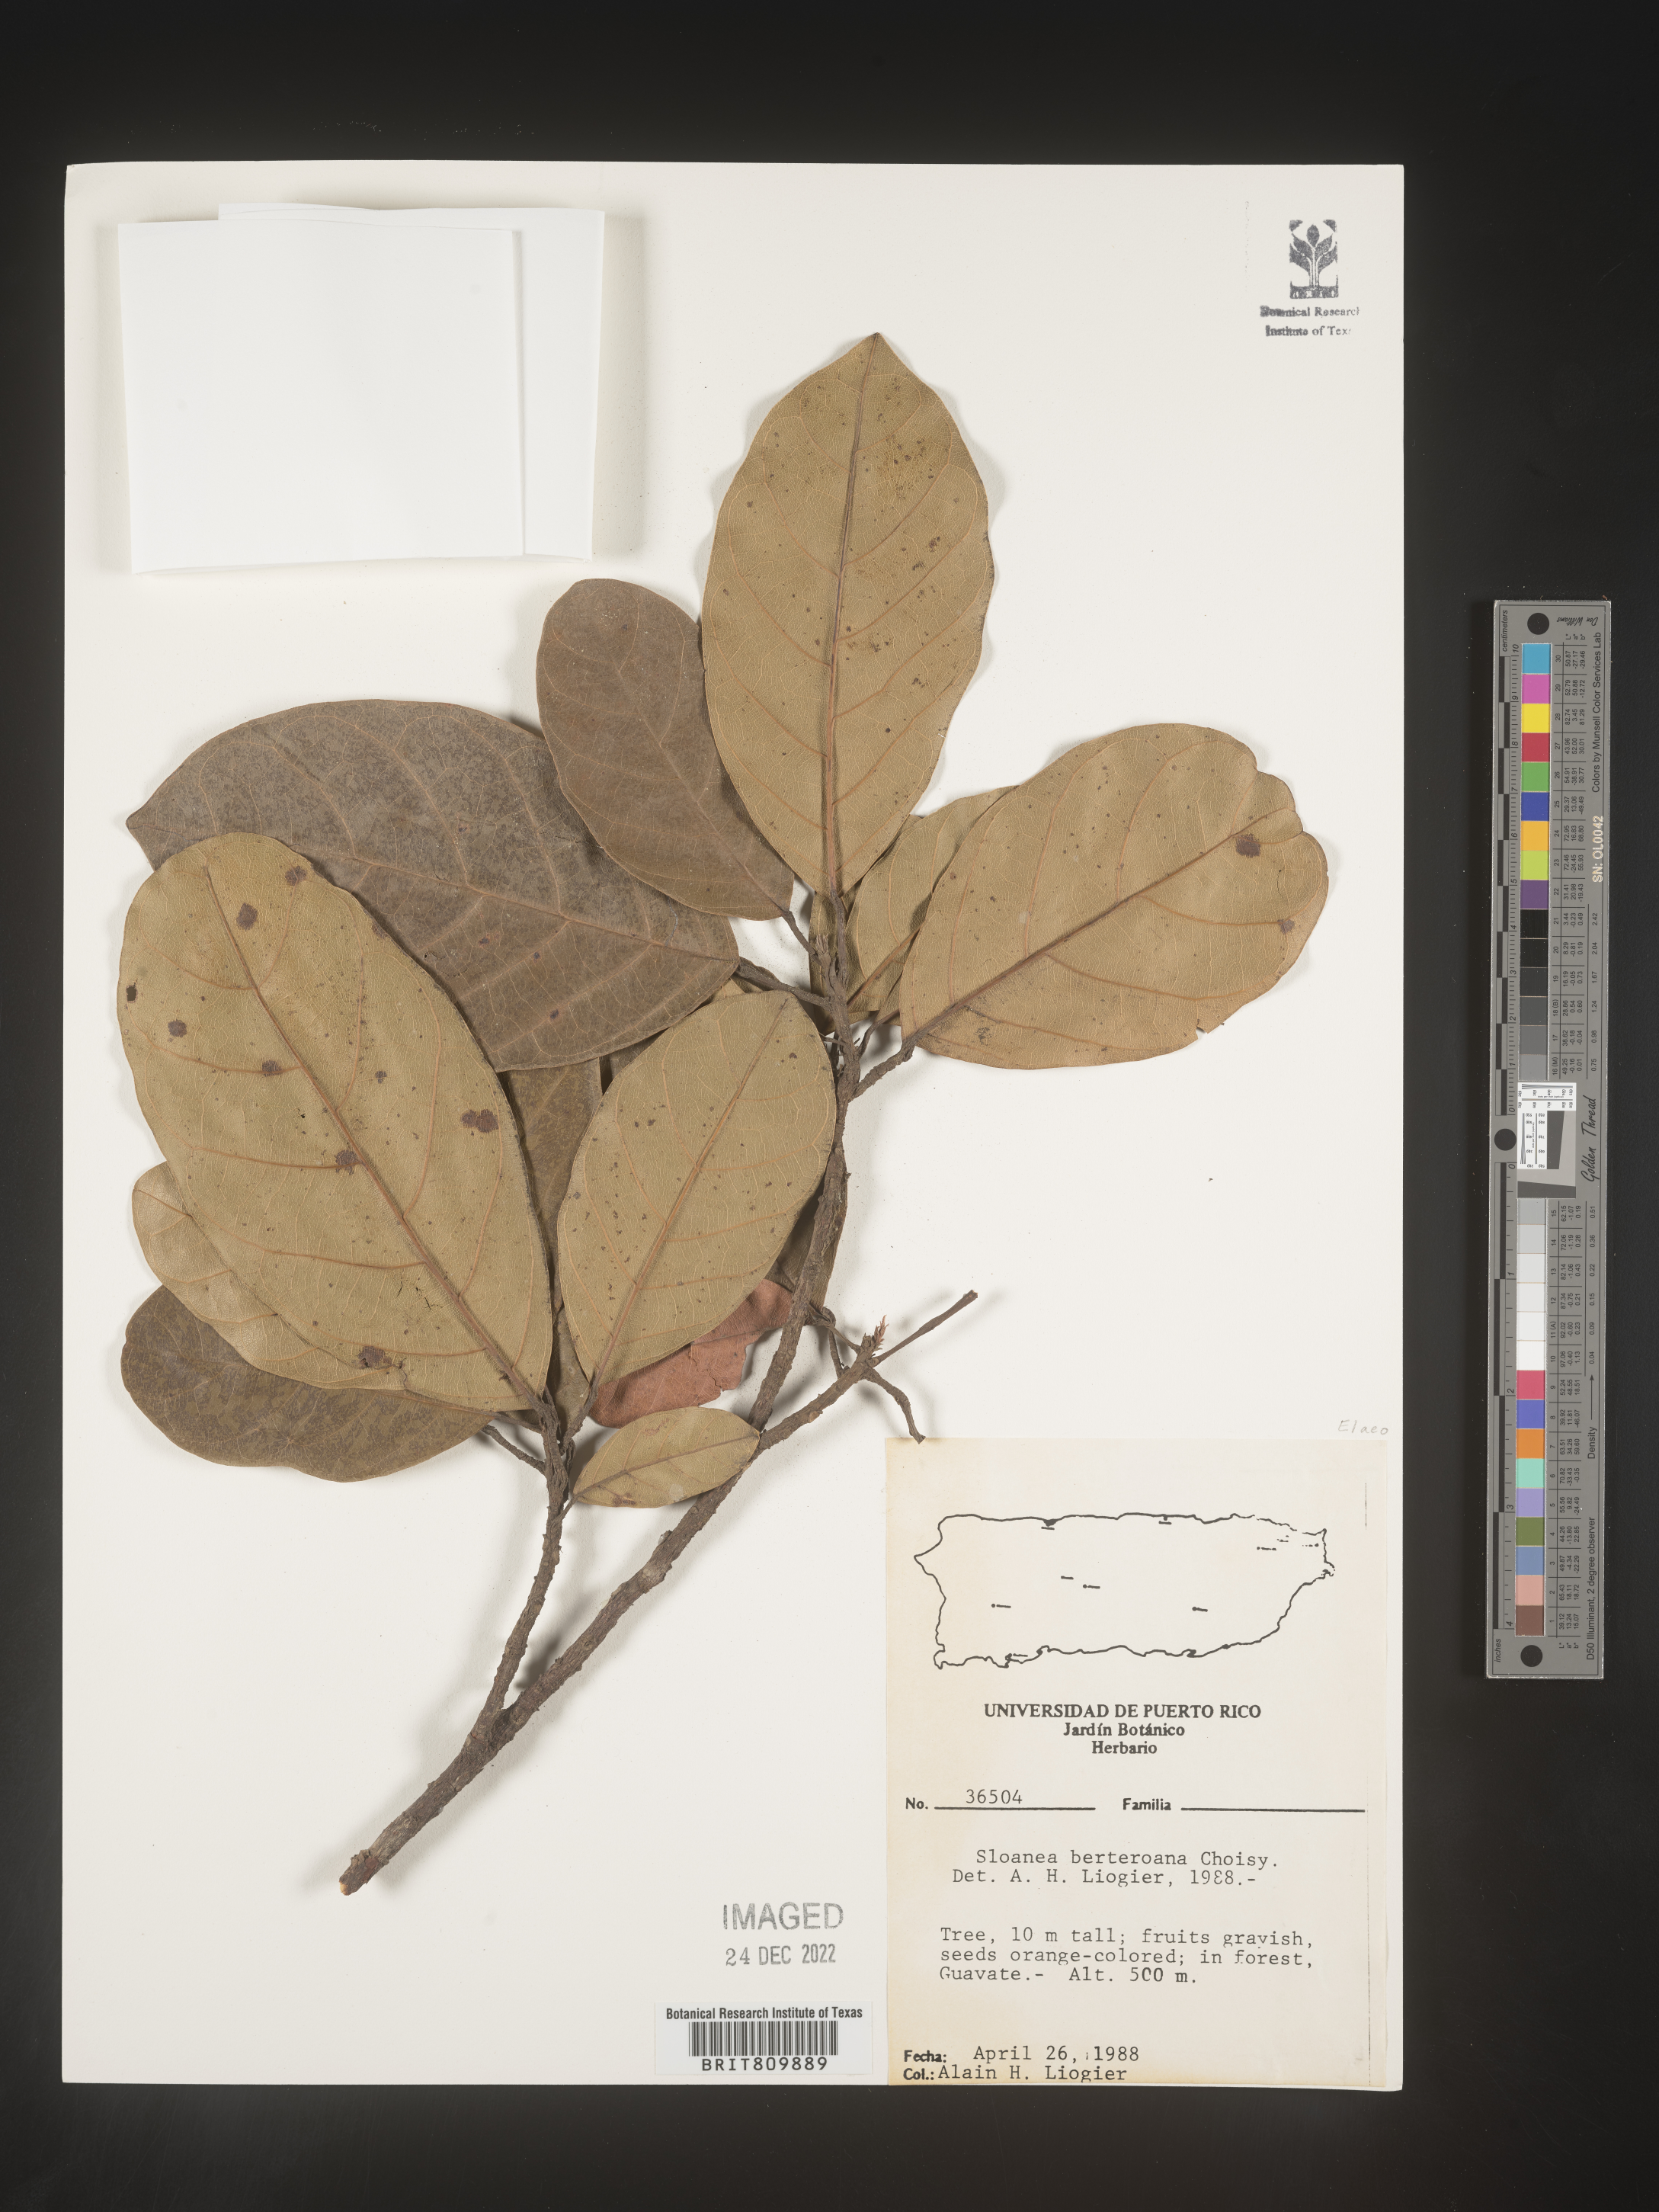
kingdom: Plantae
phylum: Tracheophyta
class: Magnoliopsida
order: Oxalidales
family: Elaeocarpaceae
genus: Sloanea
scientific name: Sloanea
